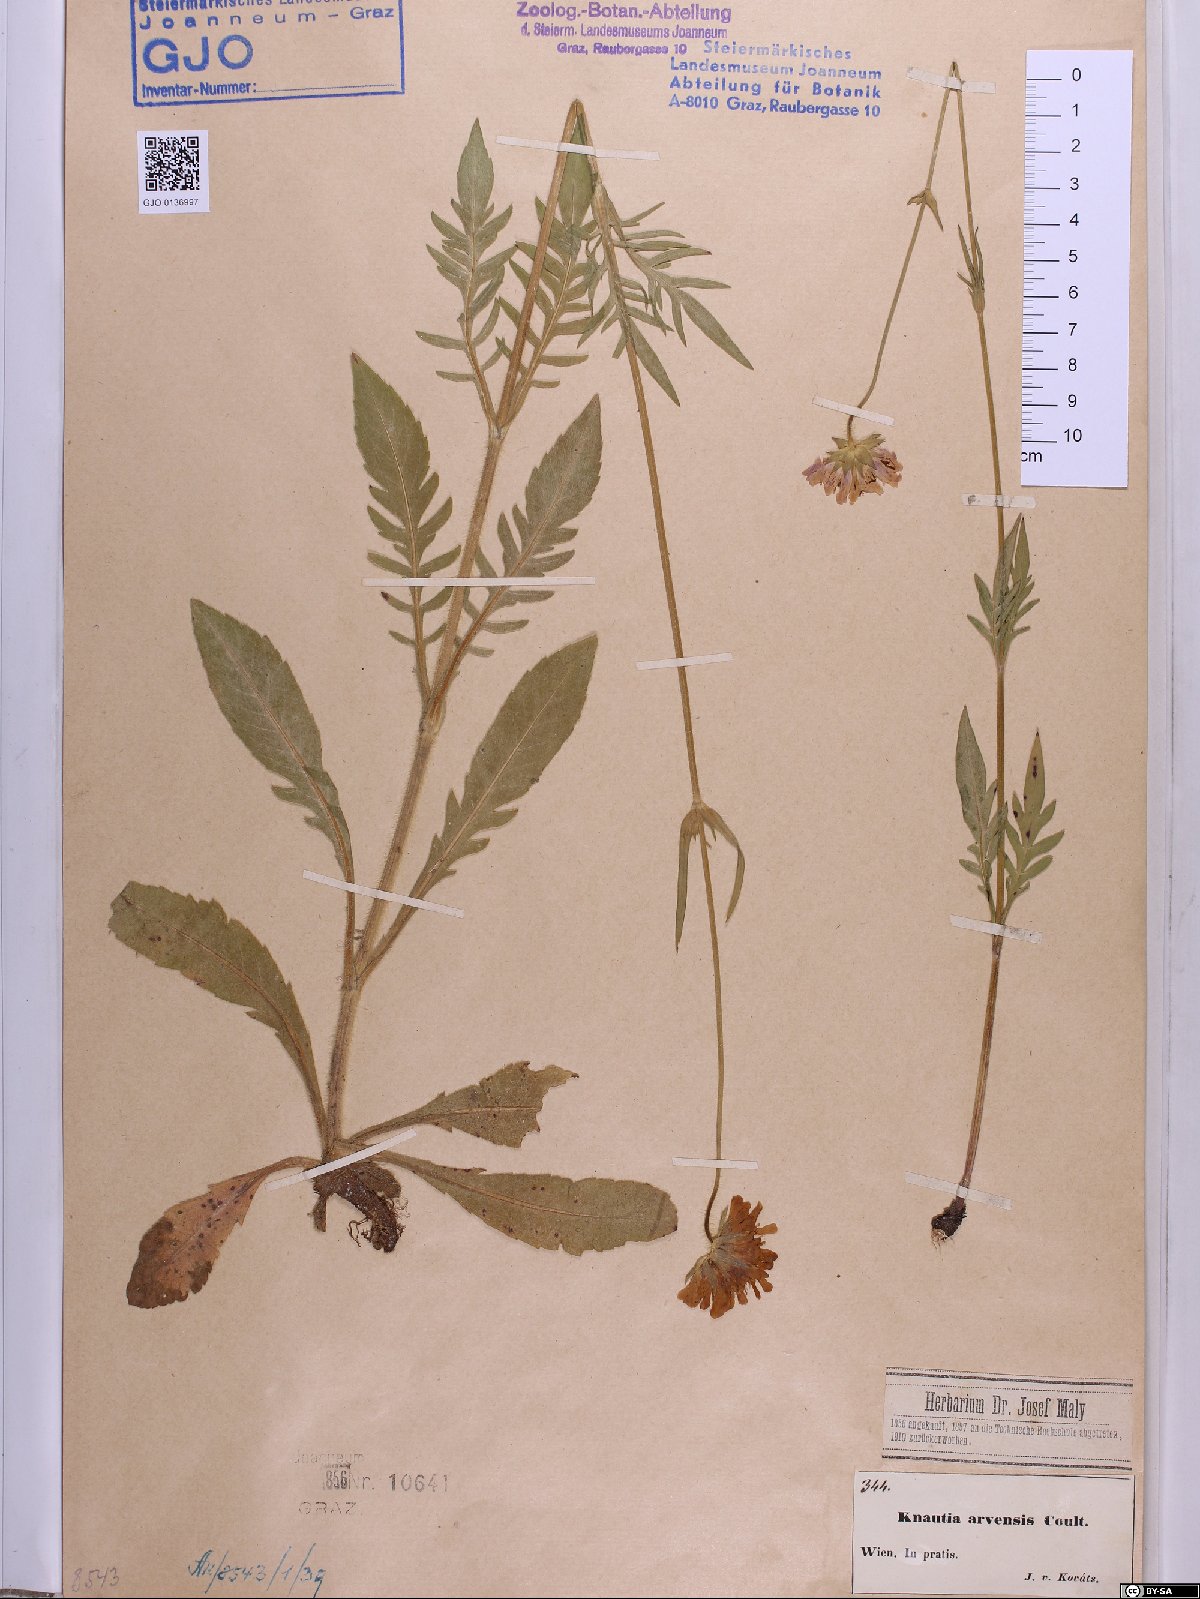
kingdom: Plantae
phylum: Tracheophyta
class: Magnoliopsida
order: Dipsacales
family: Caprifoliaceae
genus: Knautia
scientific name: Knautia arvensis
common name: Field scabiosa
